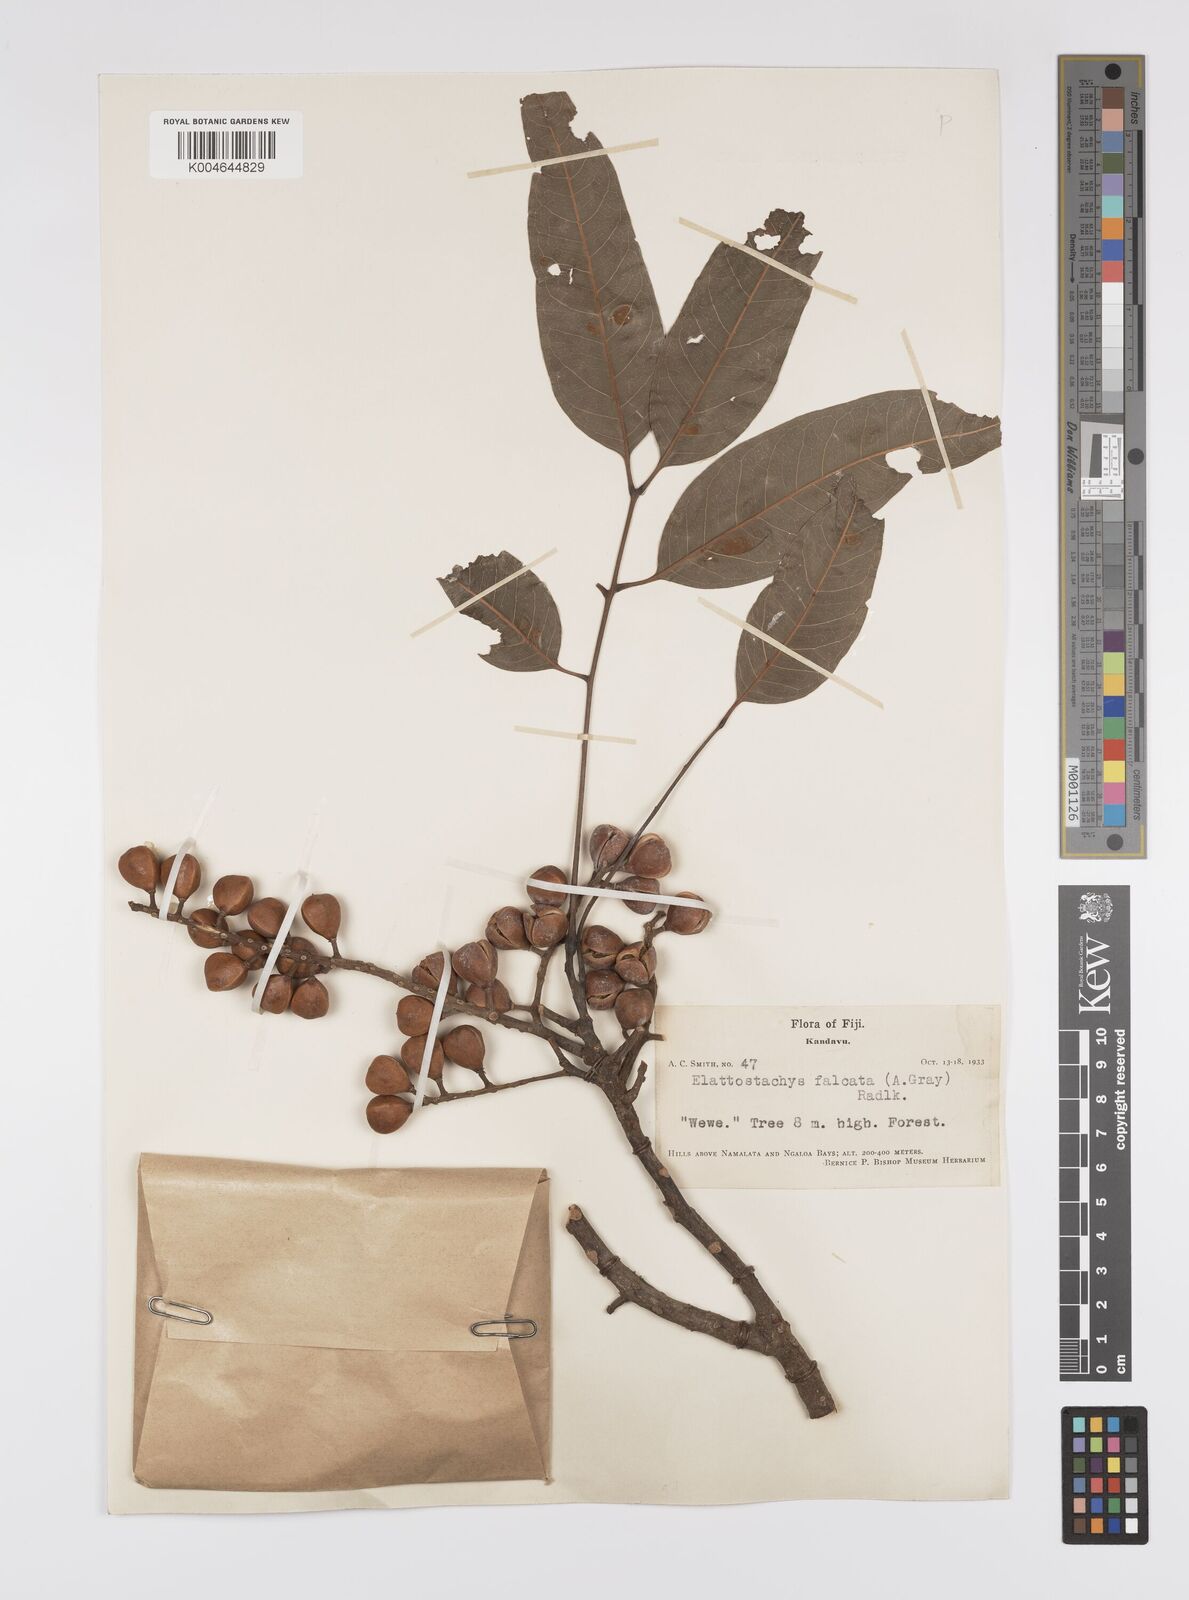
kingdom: Plantae
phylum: Tracheophyta
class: Magnoliopsida
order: Sapindales
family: Sapindaceae
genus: Elattostachys
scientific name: Elattostachys apetala
